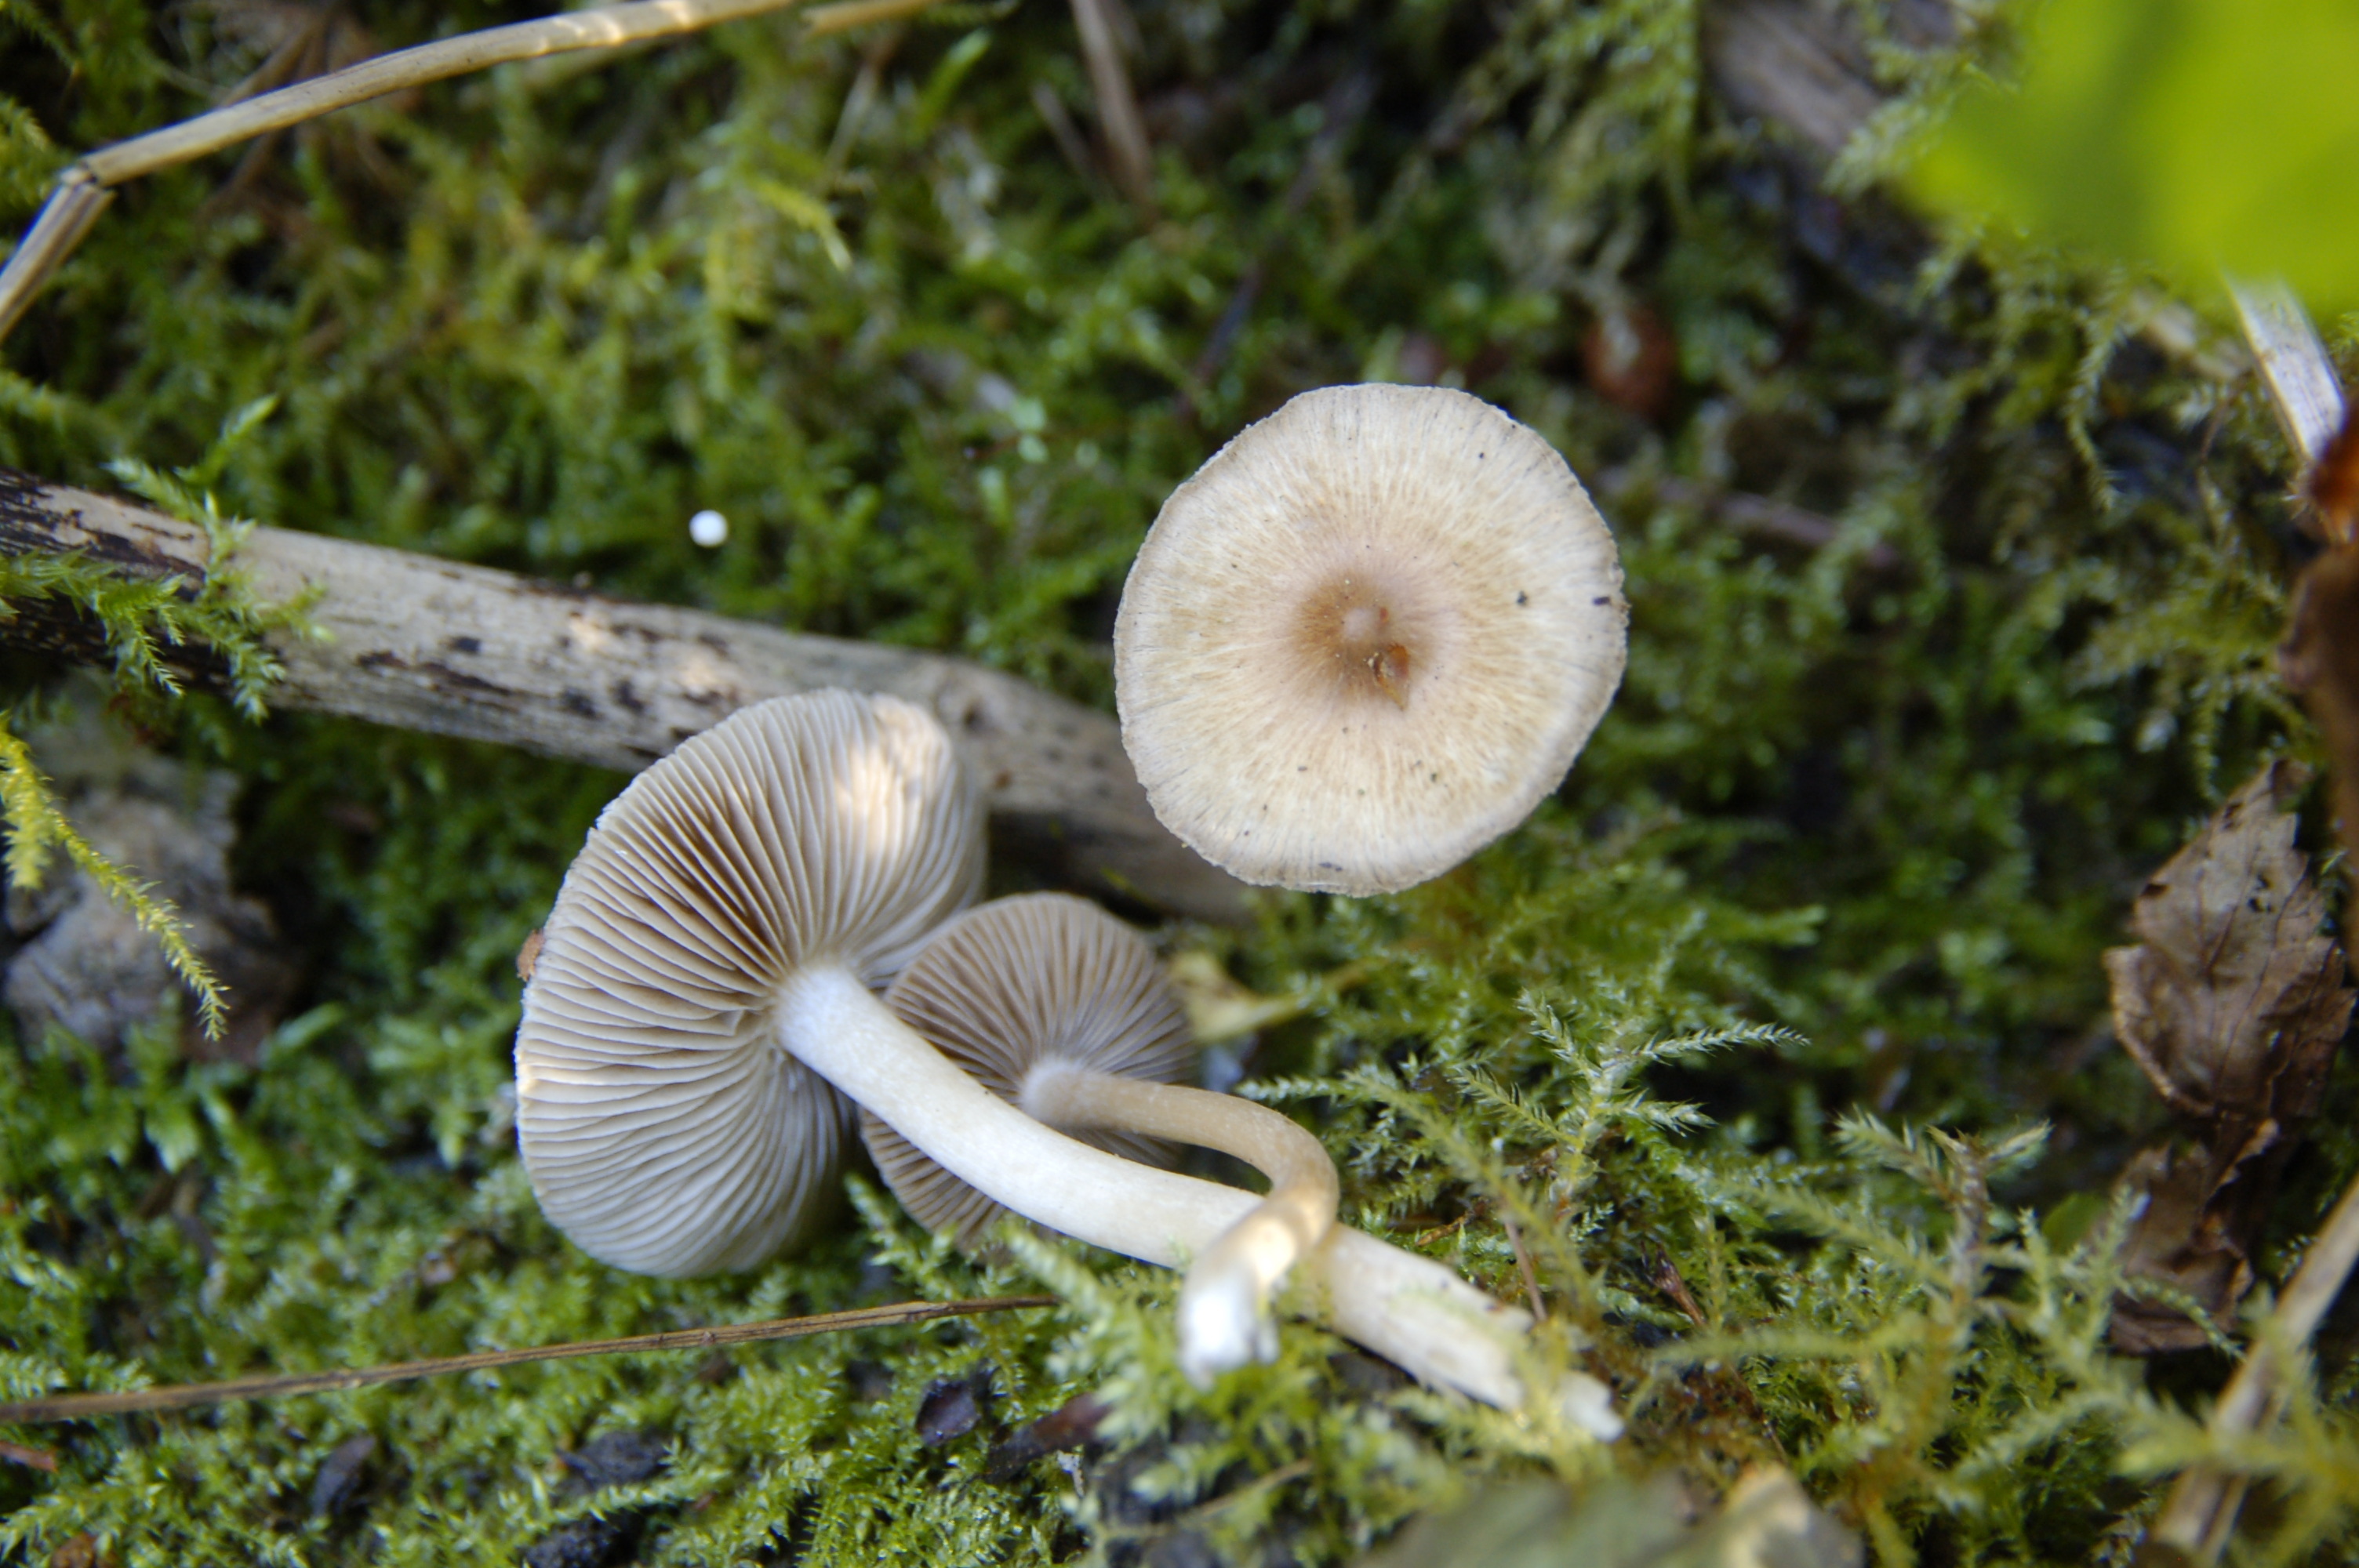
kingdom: Fungi
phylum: Basidiomycota
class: Agaricomycetes
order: Agaricales
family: Inocybaceae
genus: Inocybe
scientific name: Inocybe
